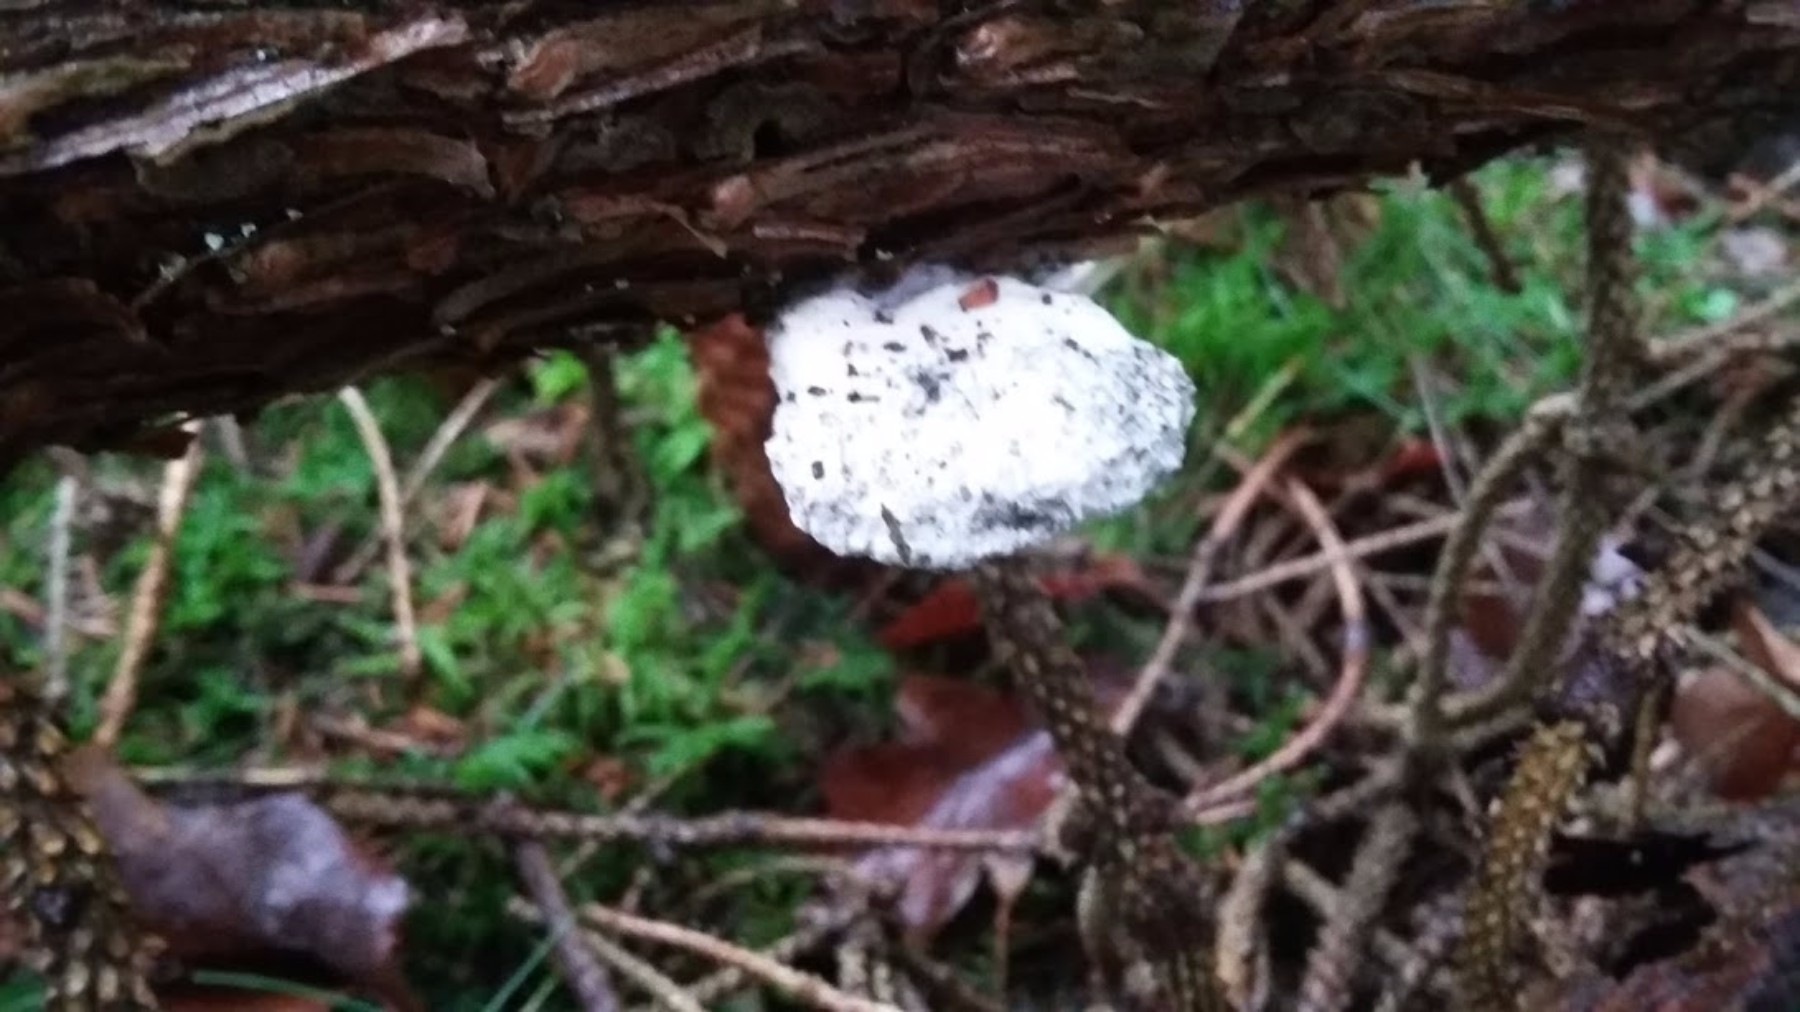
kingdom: Fungi
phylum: Basidiomycota
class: Agaricomycetes
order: Polyporales
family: Dacryobolaceae
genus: Postia
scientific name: Postia
